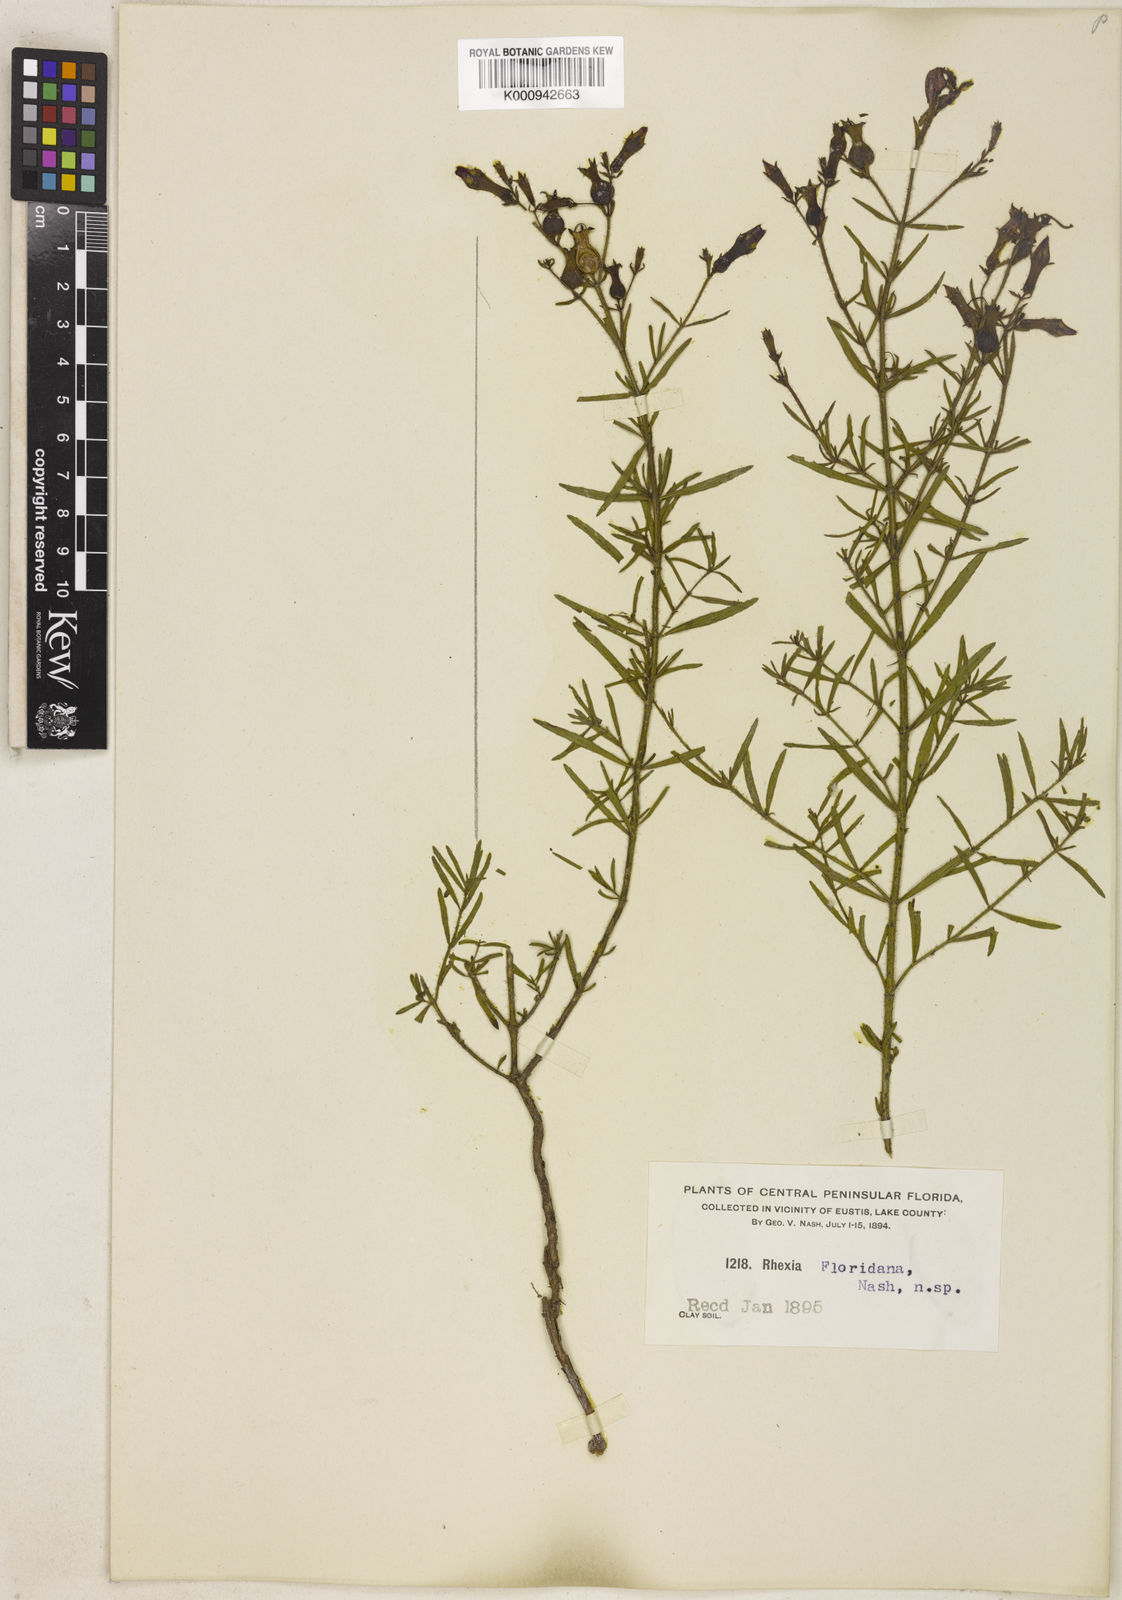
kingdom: Plantae
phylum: Tracheophyta
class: Magnoliopsida
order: Myrtales
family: Melastomataceae
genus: Rhexia
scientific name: Rhexia cubensis
